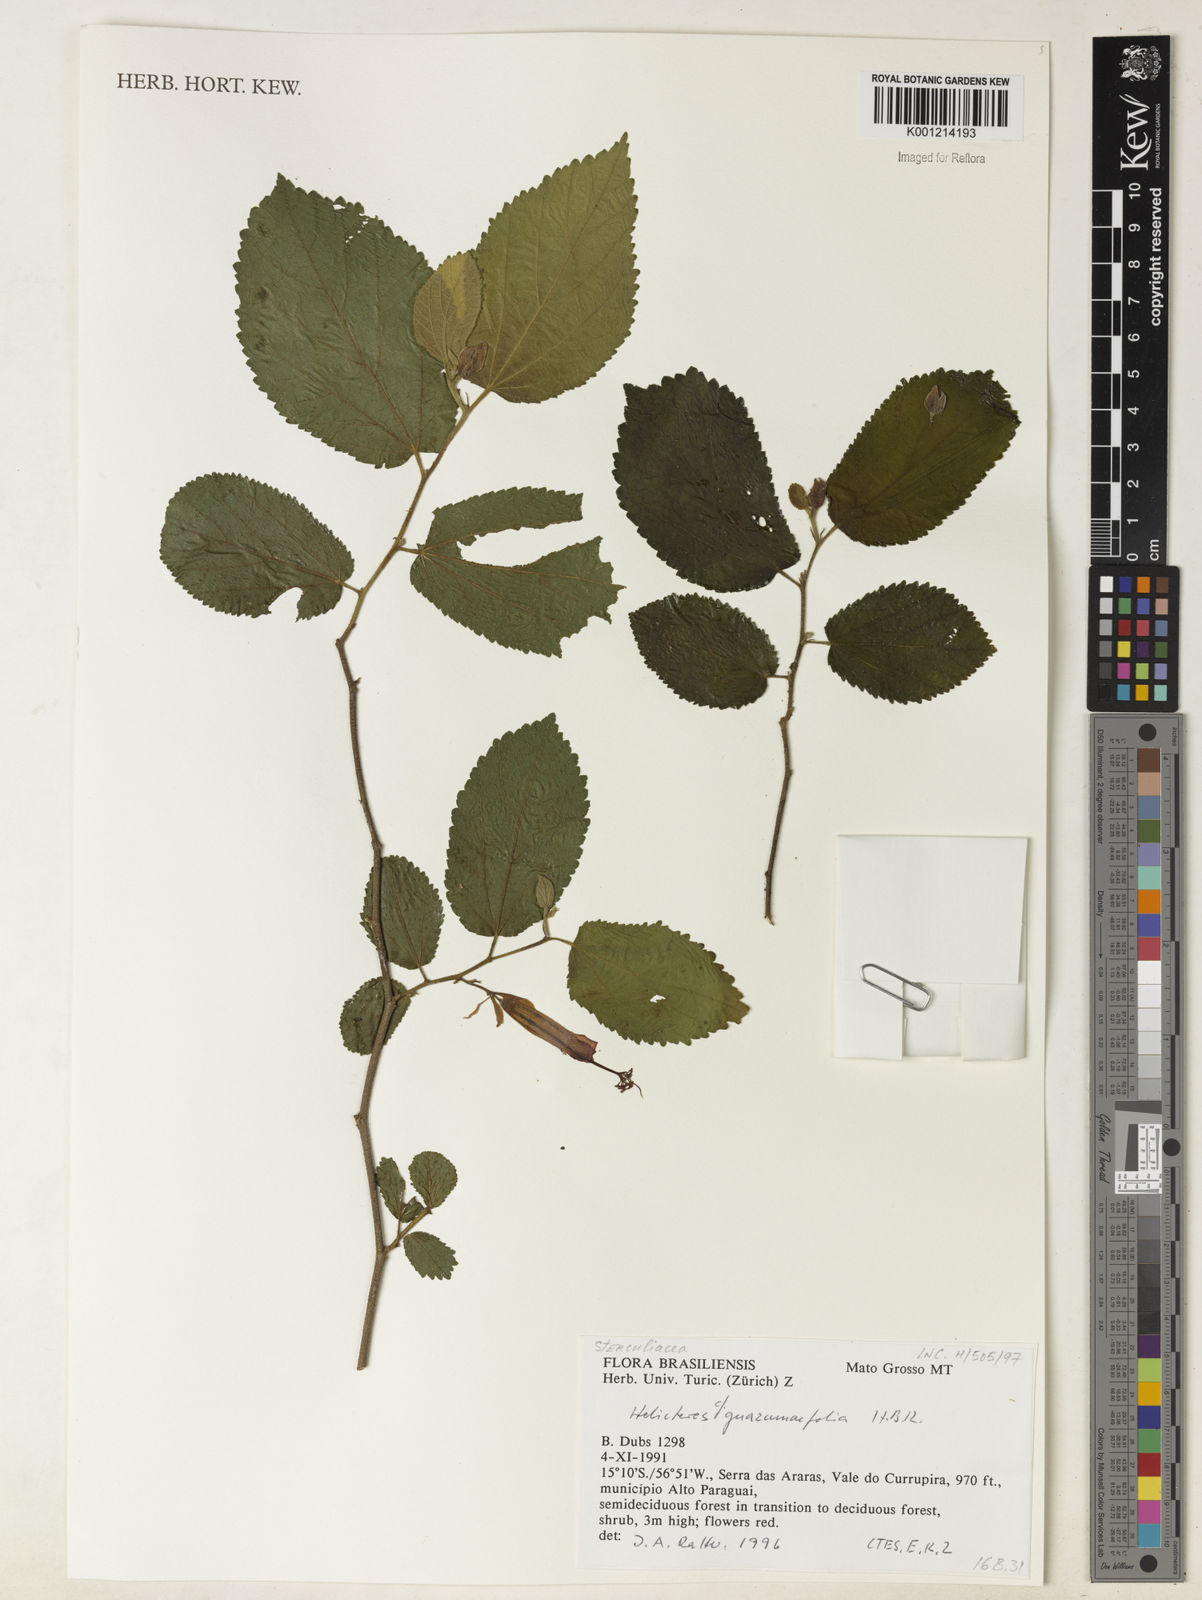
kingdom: Plantae
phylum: Tracheophyta
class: Magnoliopsida
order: Malvales
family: Malvaceae
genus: Helicteres
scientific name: Helicteres guazumifolia
